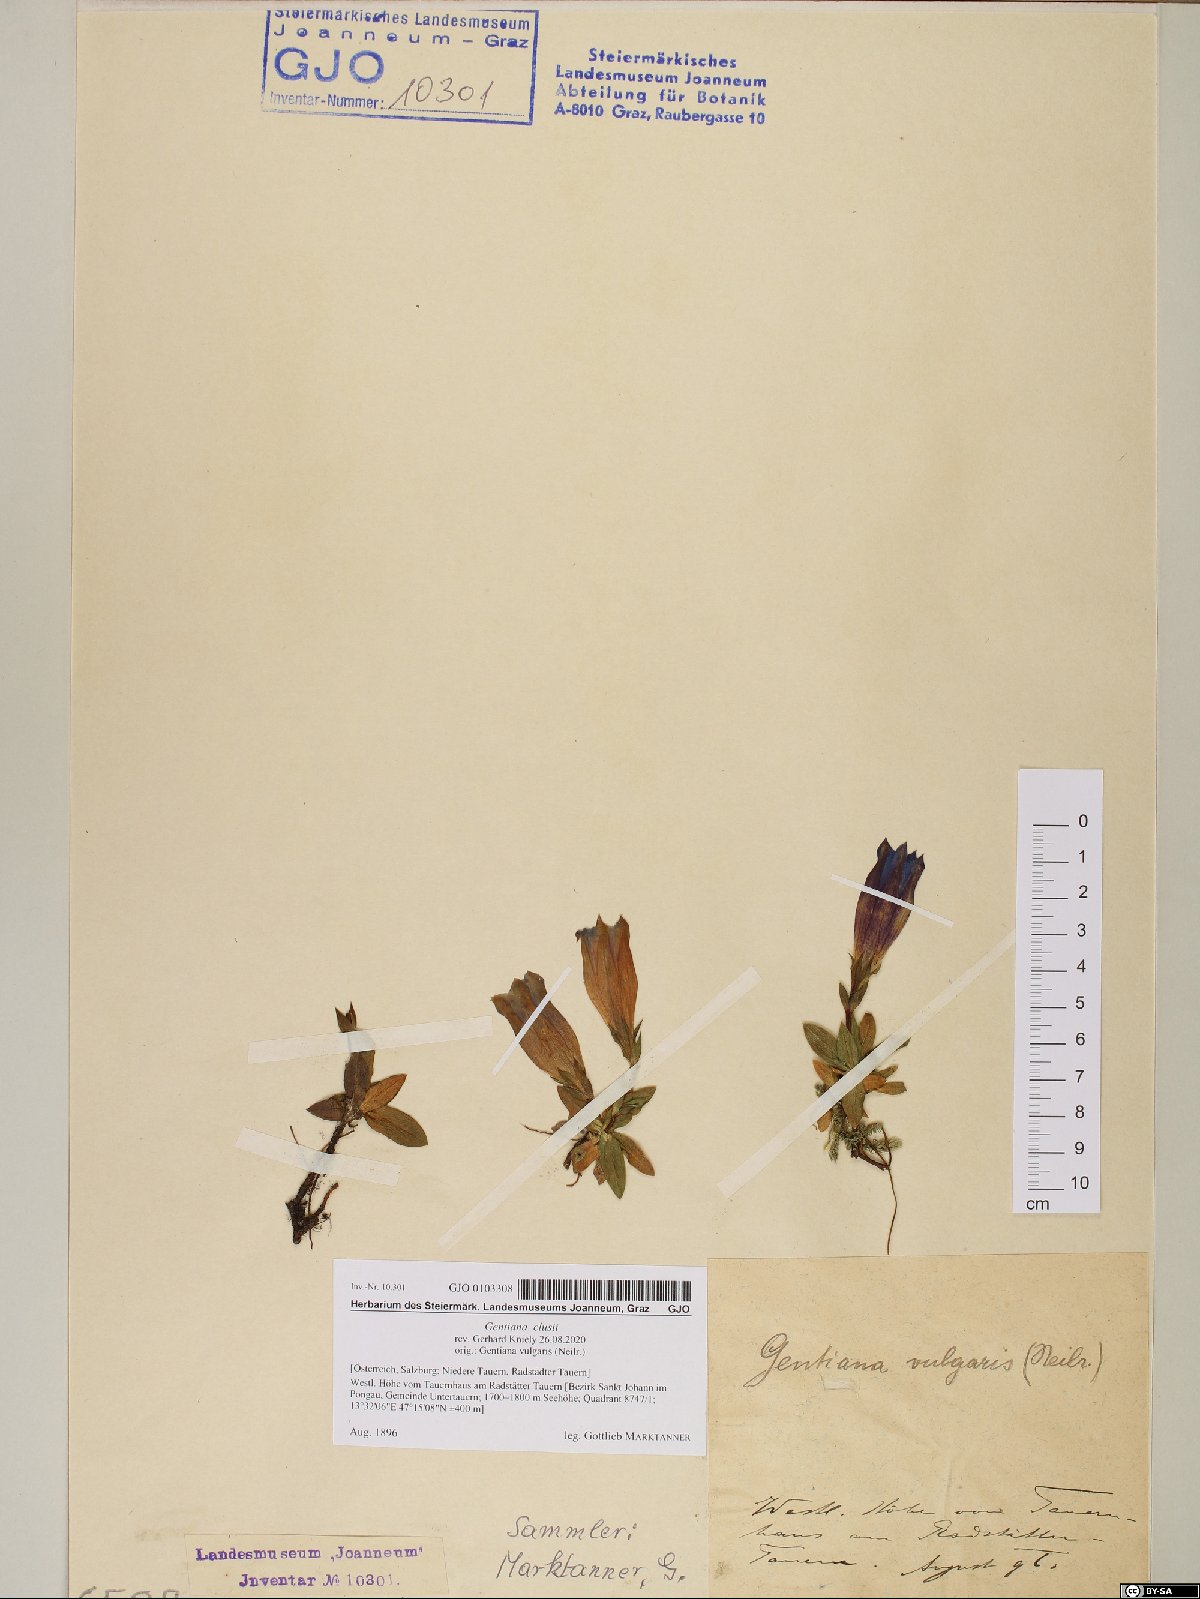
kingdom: Plantae
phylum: Tracheophyta
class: Magnoliopsida
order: Gentianales
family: Gentianaceae
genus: Gentiana
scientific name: Gentiana clusii
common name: Trumpet gentian
